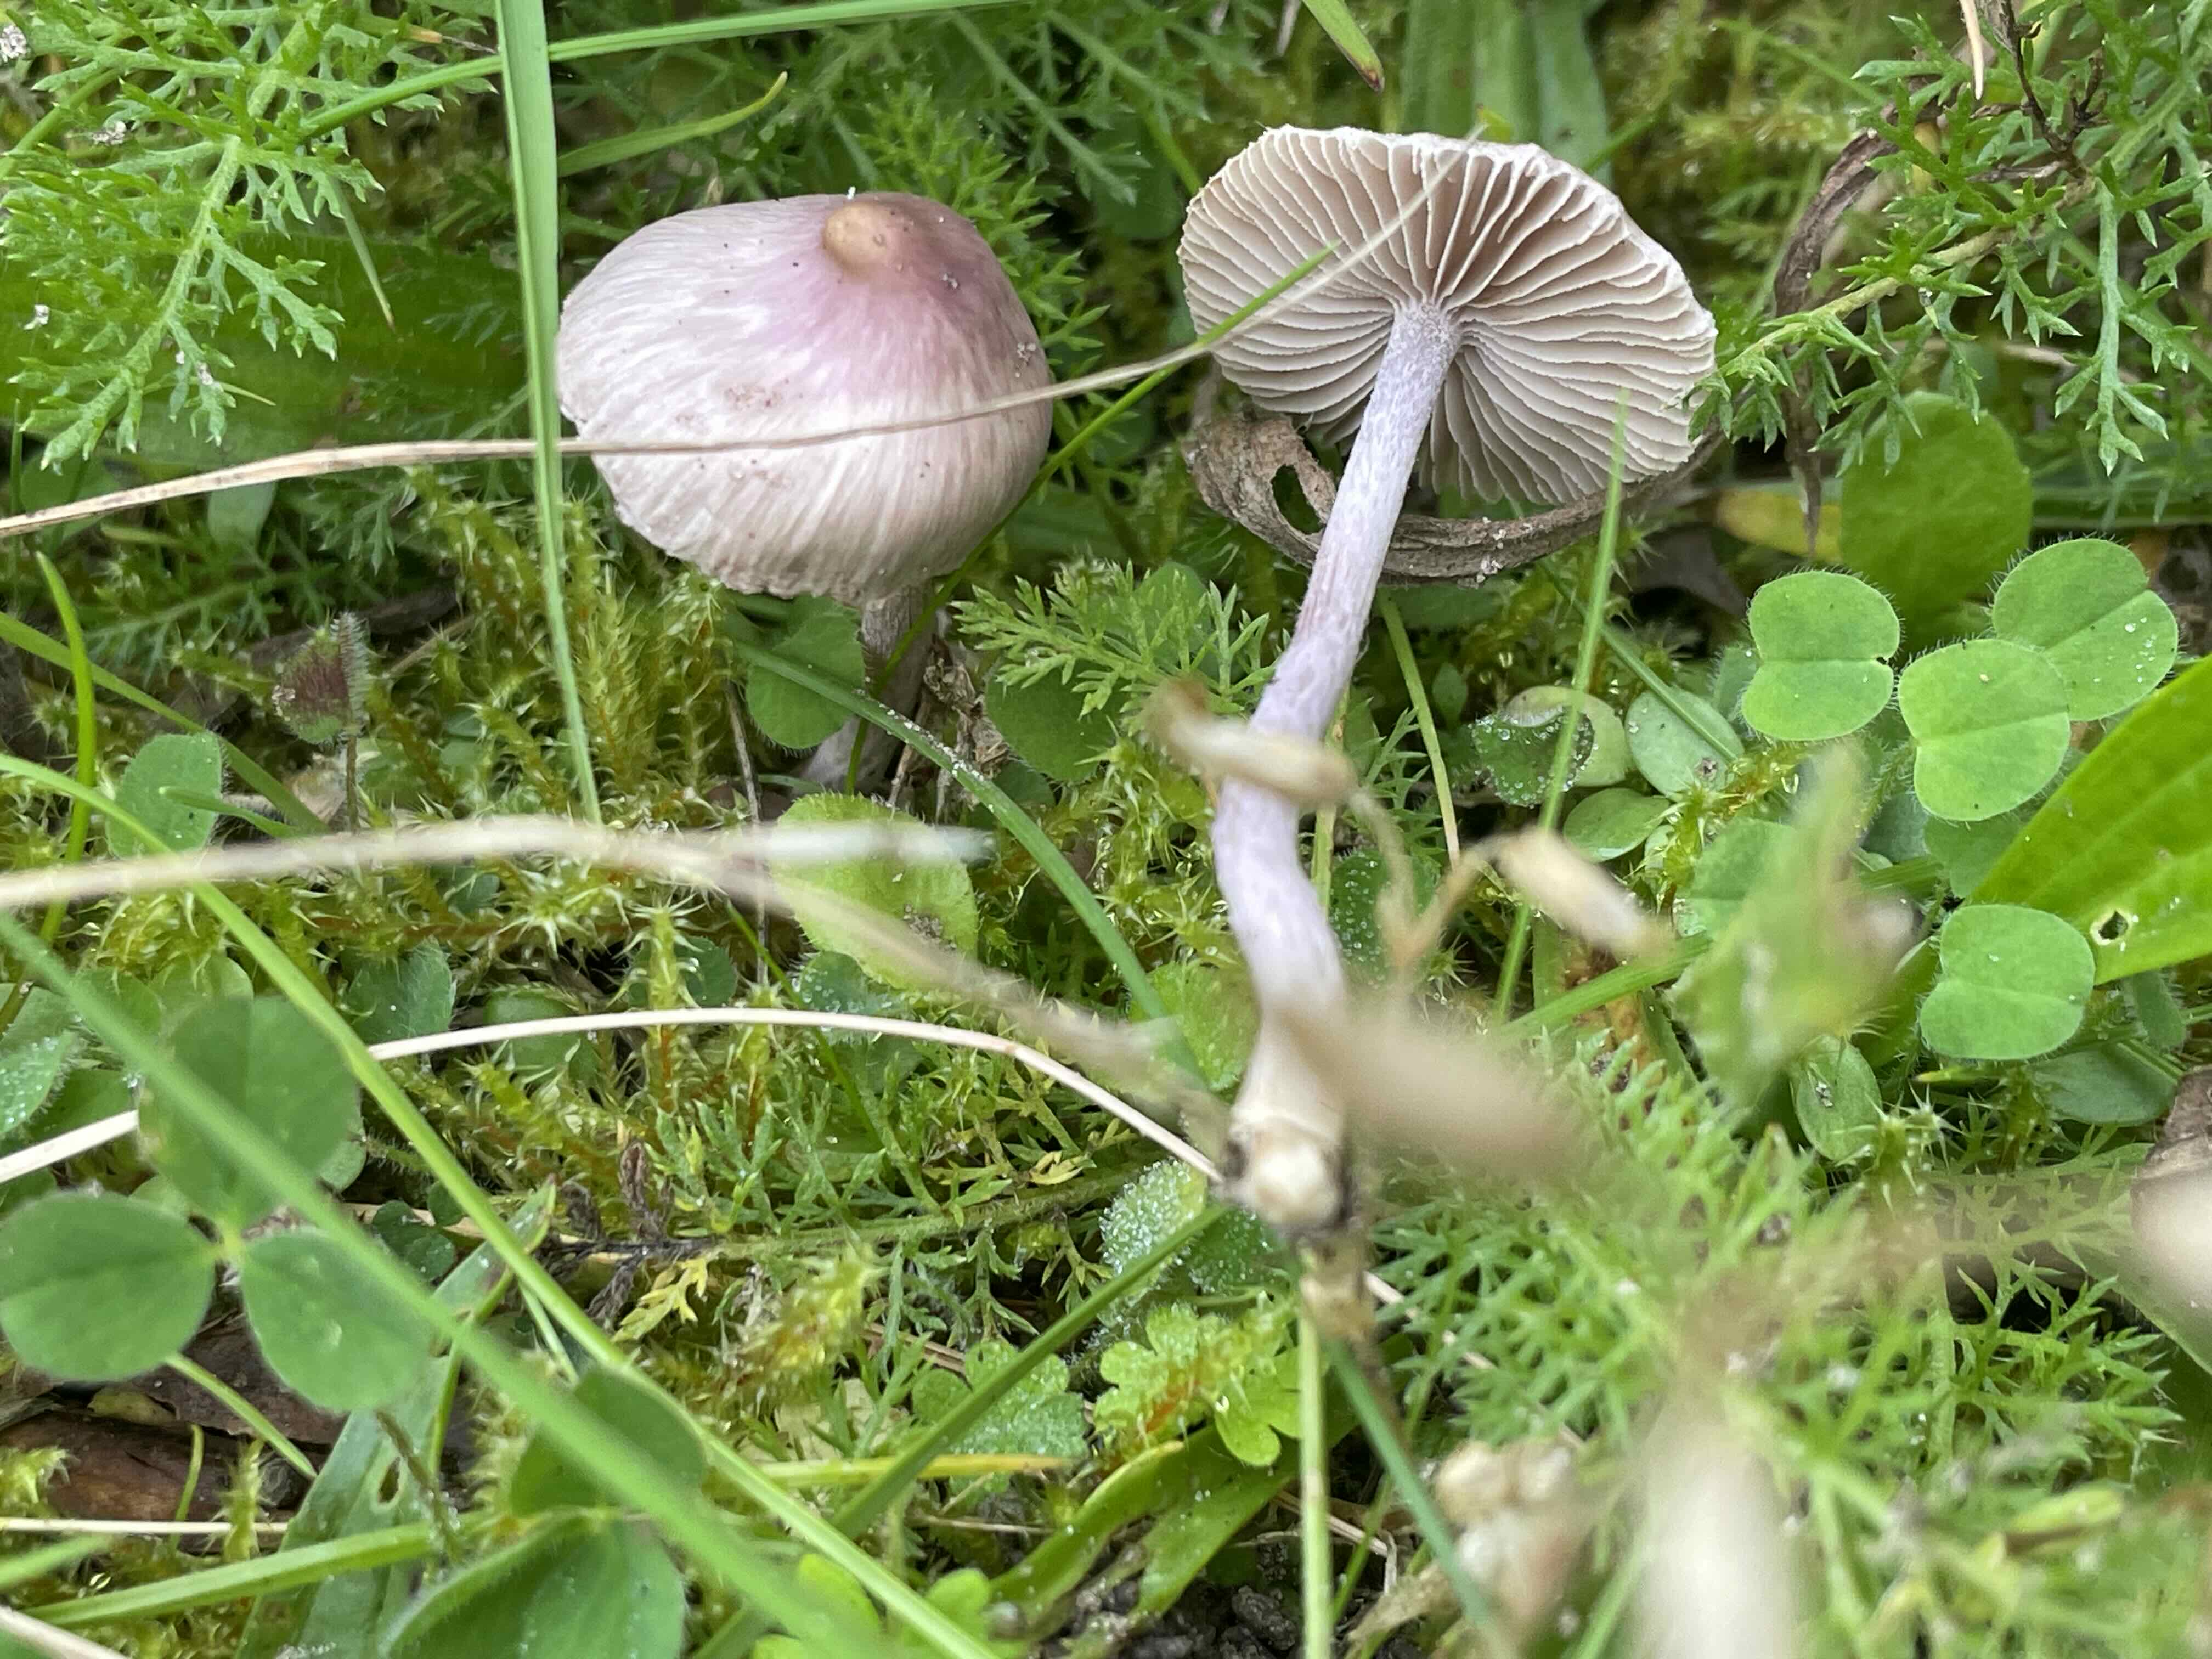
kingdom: Fungi
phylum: Basidiomycota
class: Agaricomycetes
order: Agaricales
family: Inocybaceae
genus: Inocybe
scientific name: Inocybe geophylla
